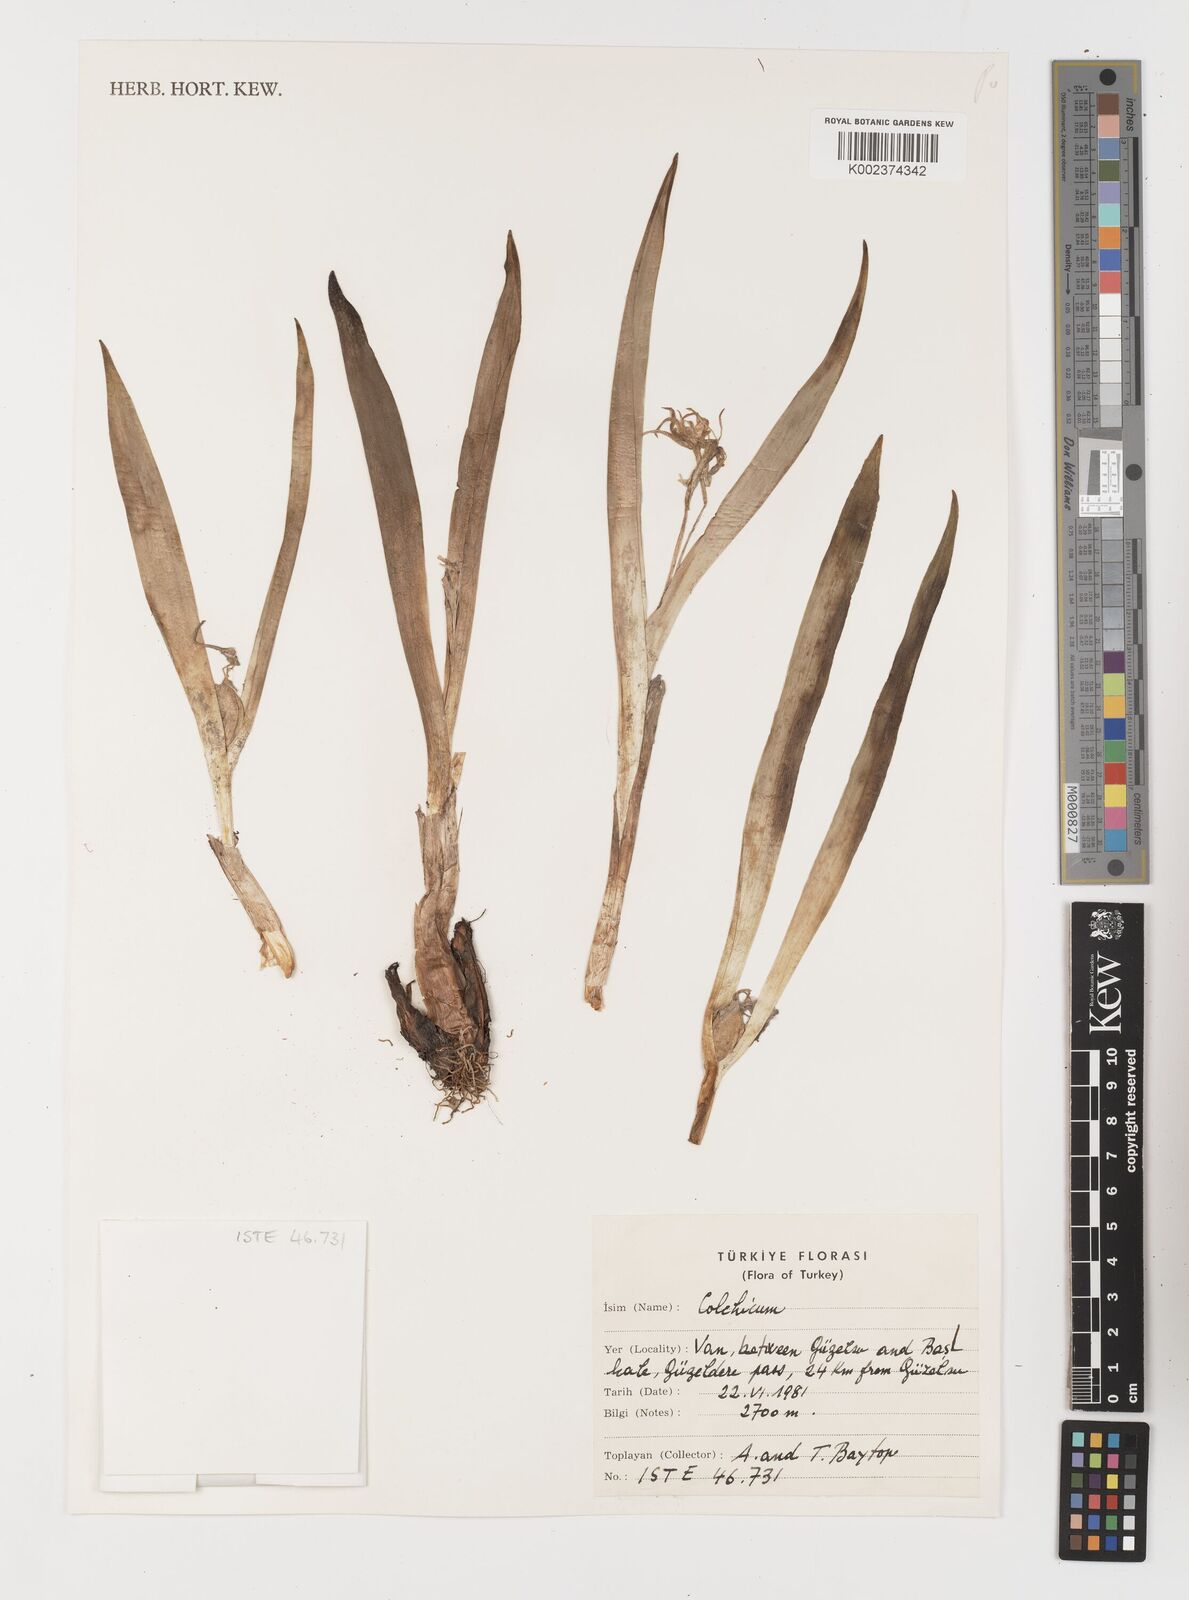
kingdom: Plantae
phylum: Tracheophyta
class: Liliopsida
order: Liliales
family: Colchicaceae
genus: Colchicum
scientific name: Colchicum
